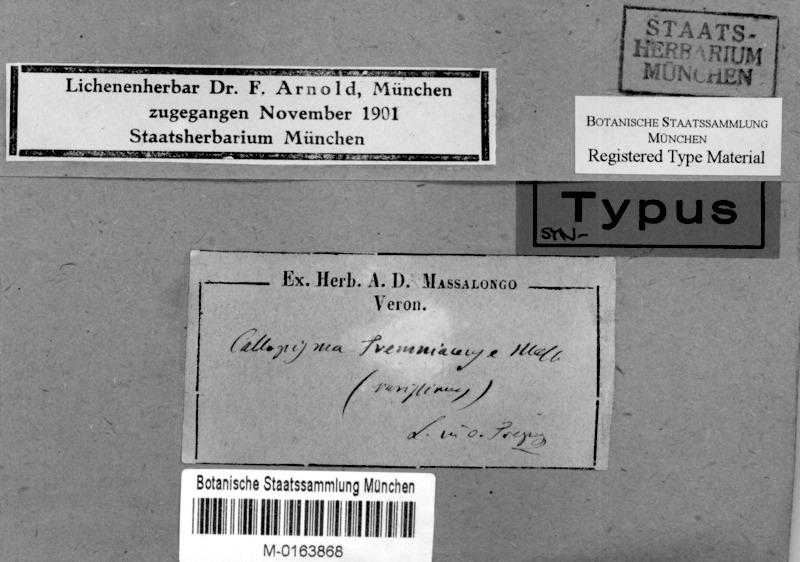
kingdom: Fungi
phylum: Ascomycota
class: Lecanoromycetes
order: Teloschistales
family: Teloschistaceae
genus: Caloplaca
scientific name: Caloplaca
